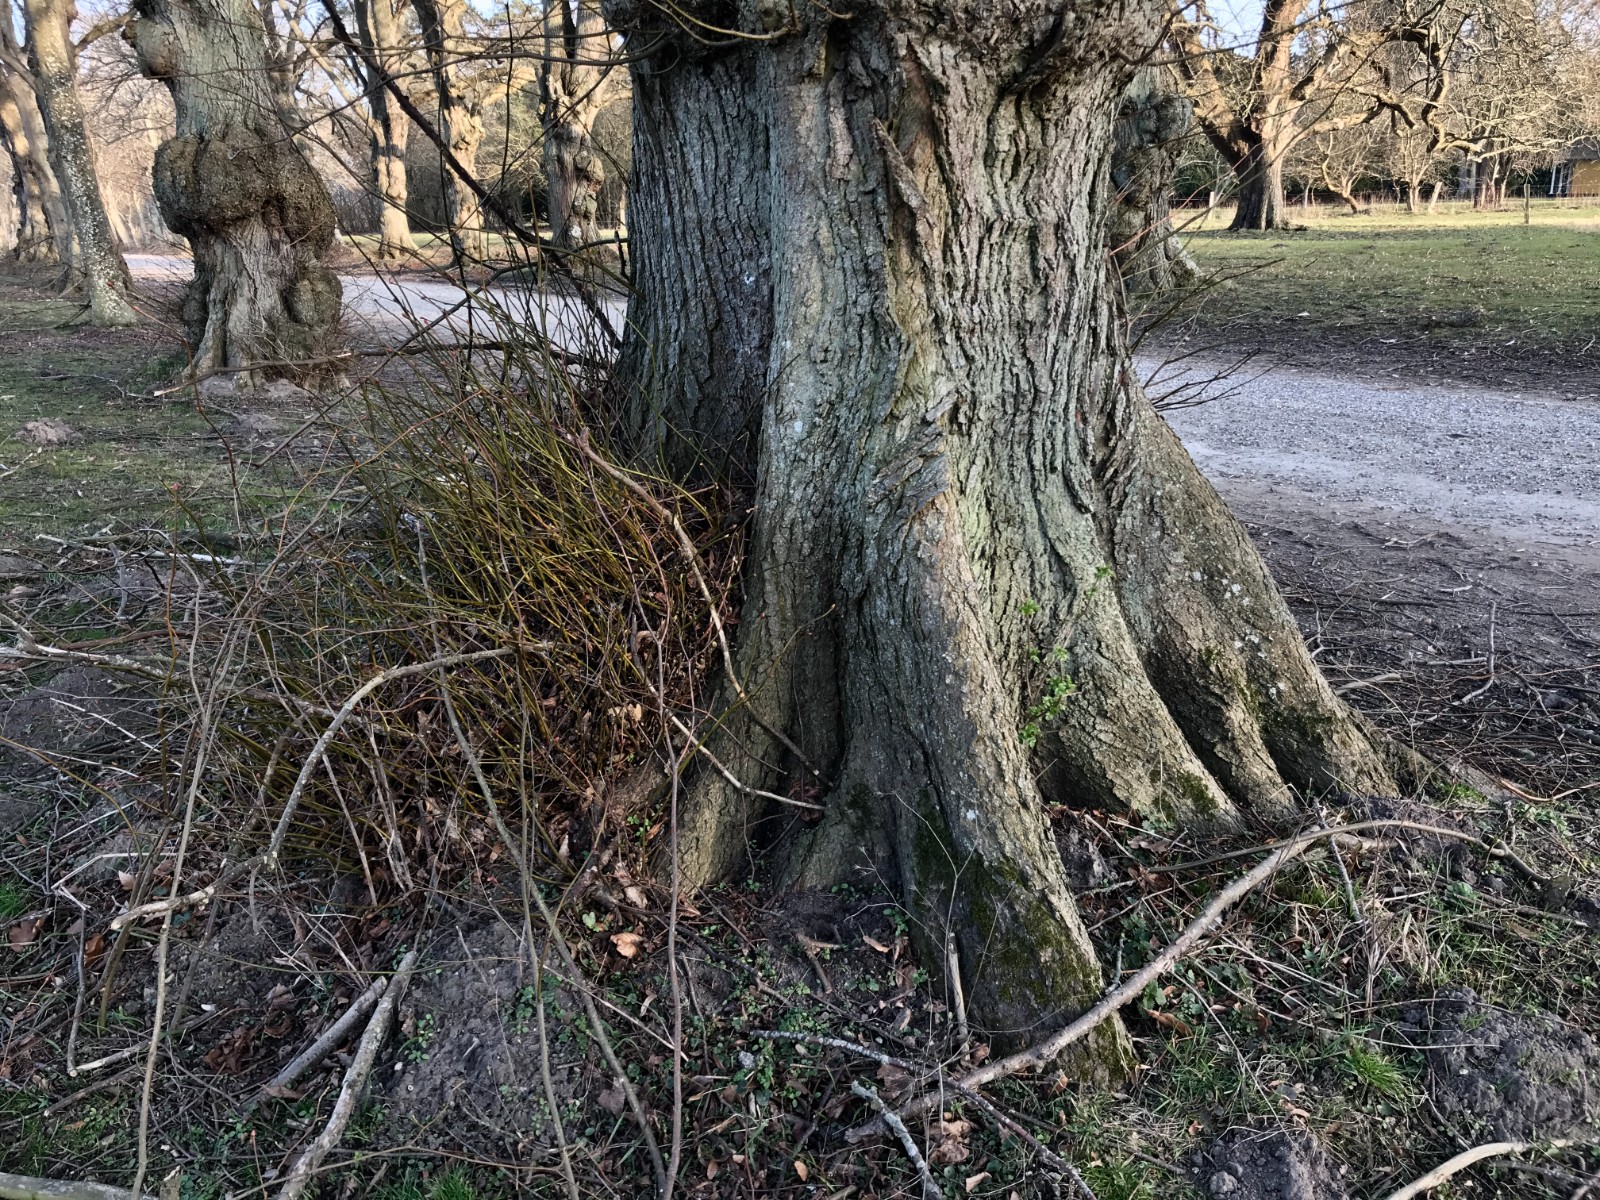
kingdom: Fungi
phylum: Basidiomycota
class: Agaricomycetes
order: Polyporales
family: Polyporaceae
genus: Ganoderma
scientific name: Ganoderma adspersum
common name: grov lakporesvamp
